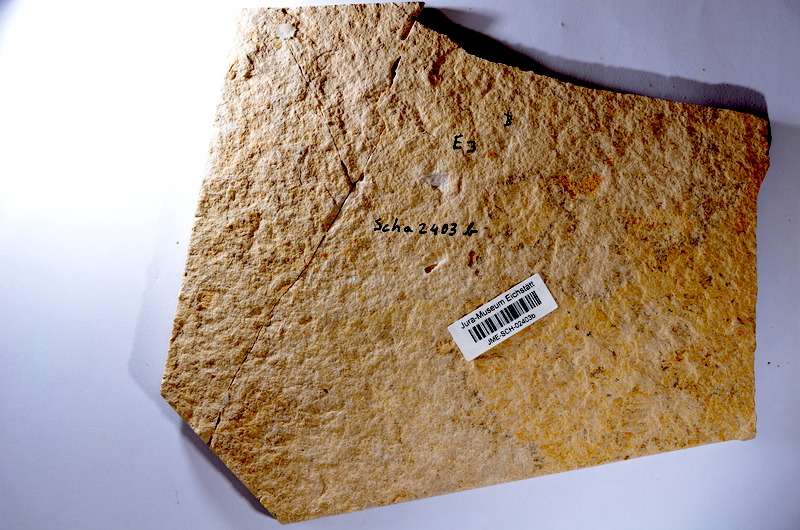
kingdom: Animalia
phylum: Chordata
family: Ascalaboidae
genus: Tharsis
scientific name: Tharsis dubius
